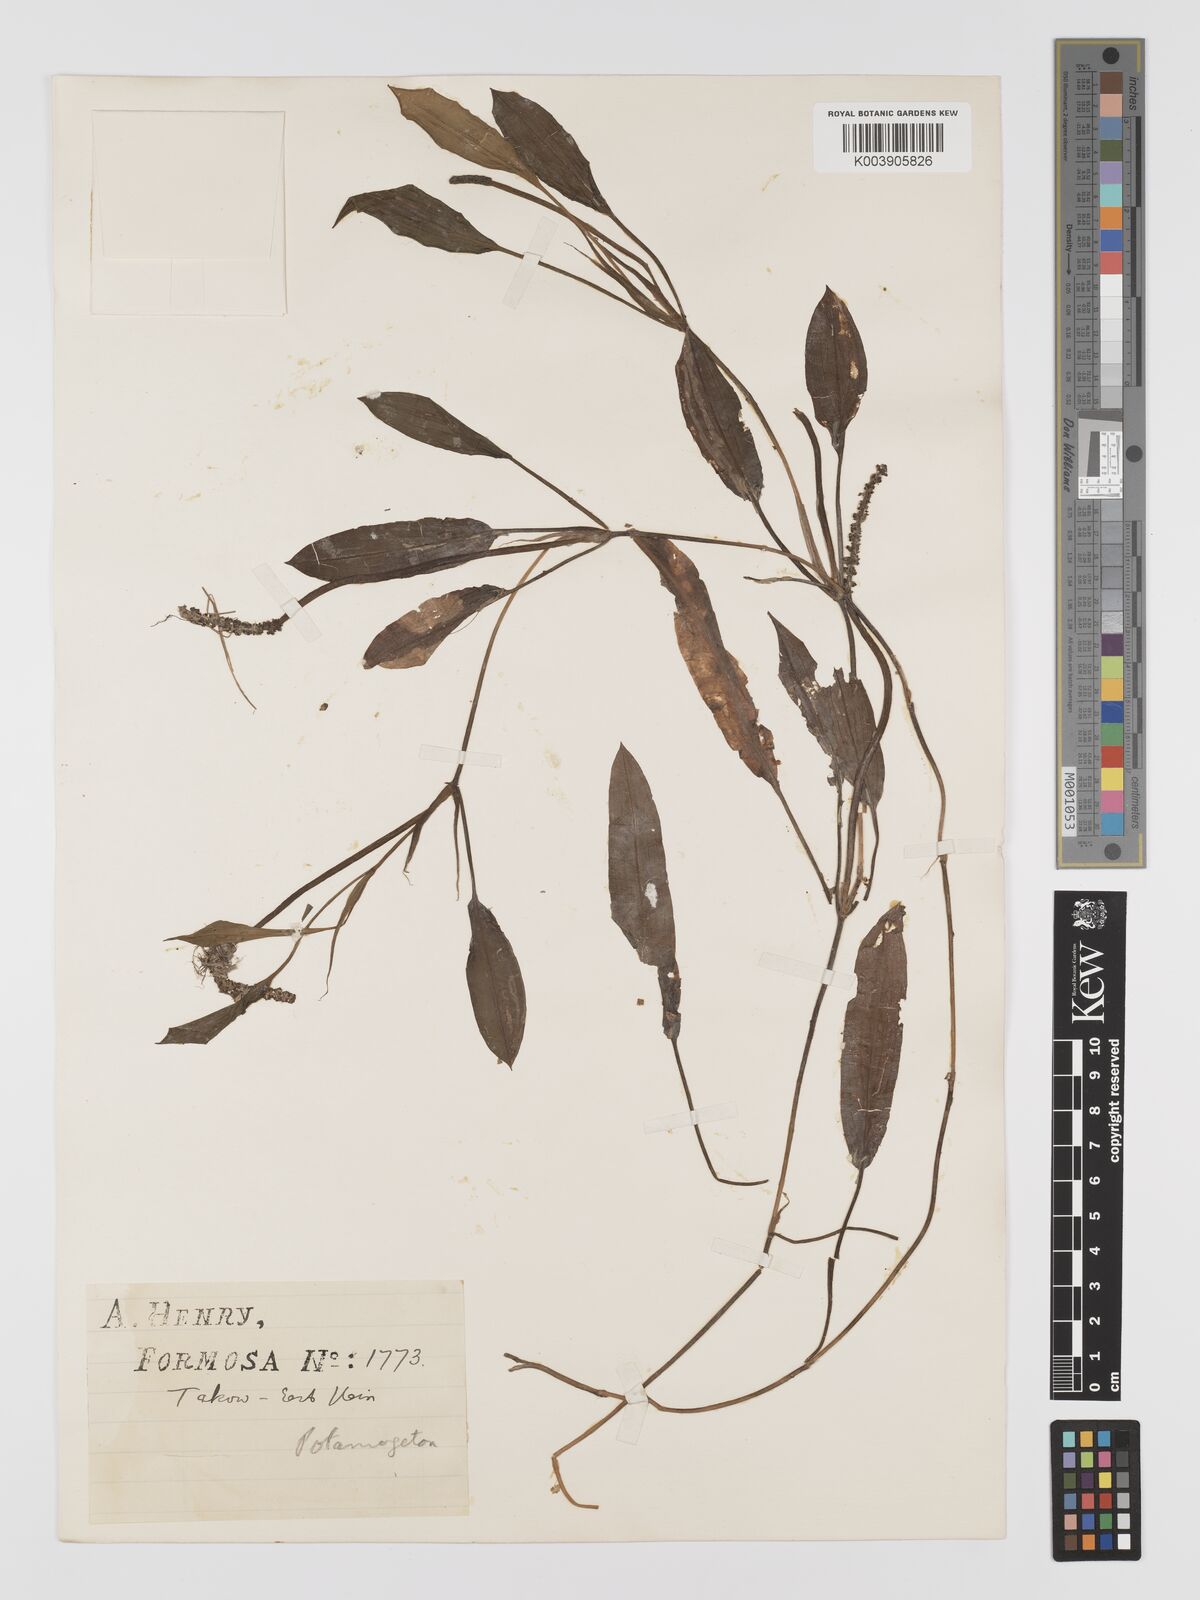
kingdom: Plantae
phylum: Tracheophyta
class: Liliopsida
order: Alismatales
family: Potamogetonaceae
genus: Potamogeton
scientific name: Potamogeton nodosus
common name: Loddon pondweed
